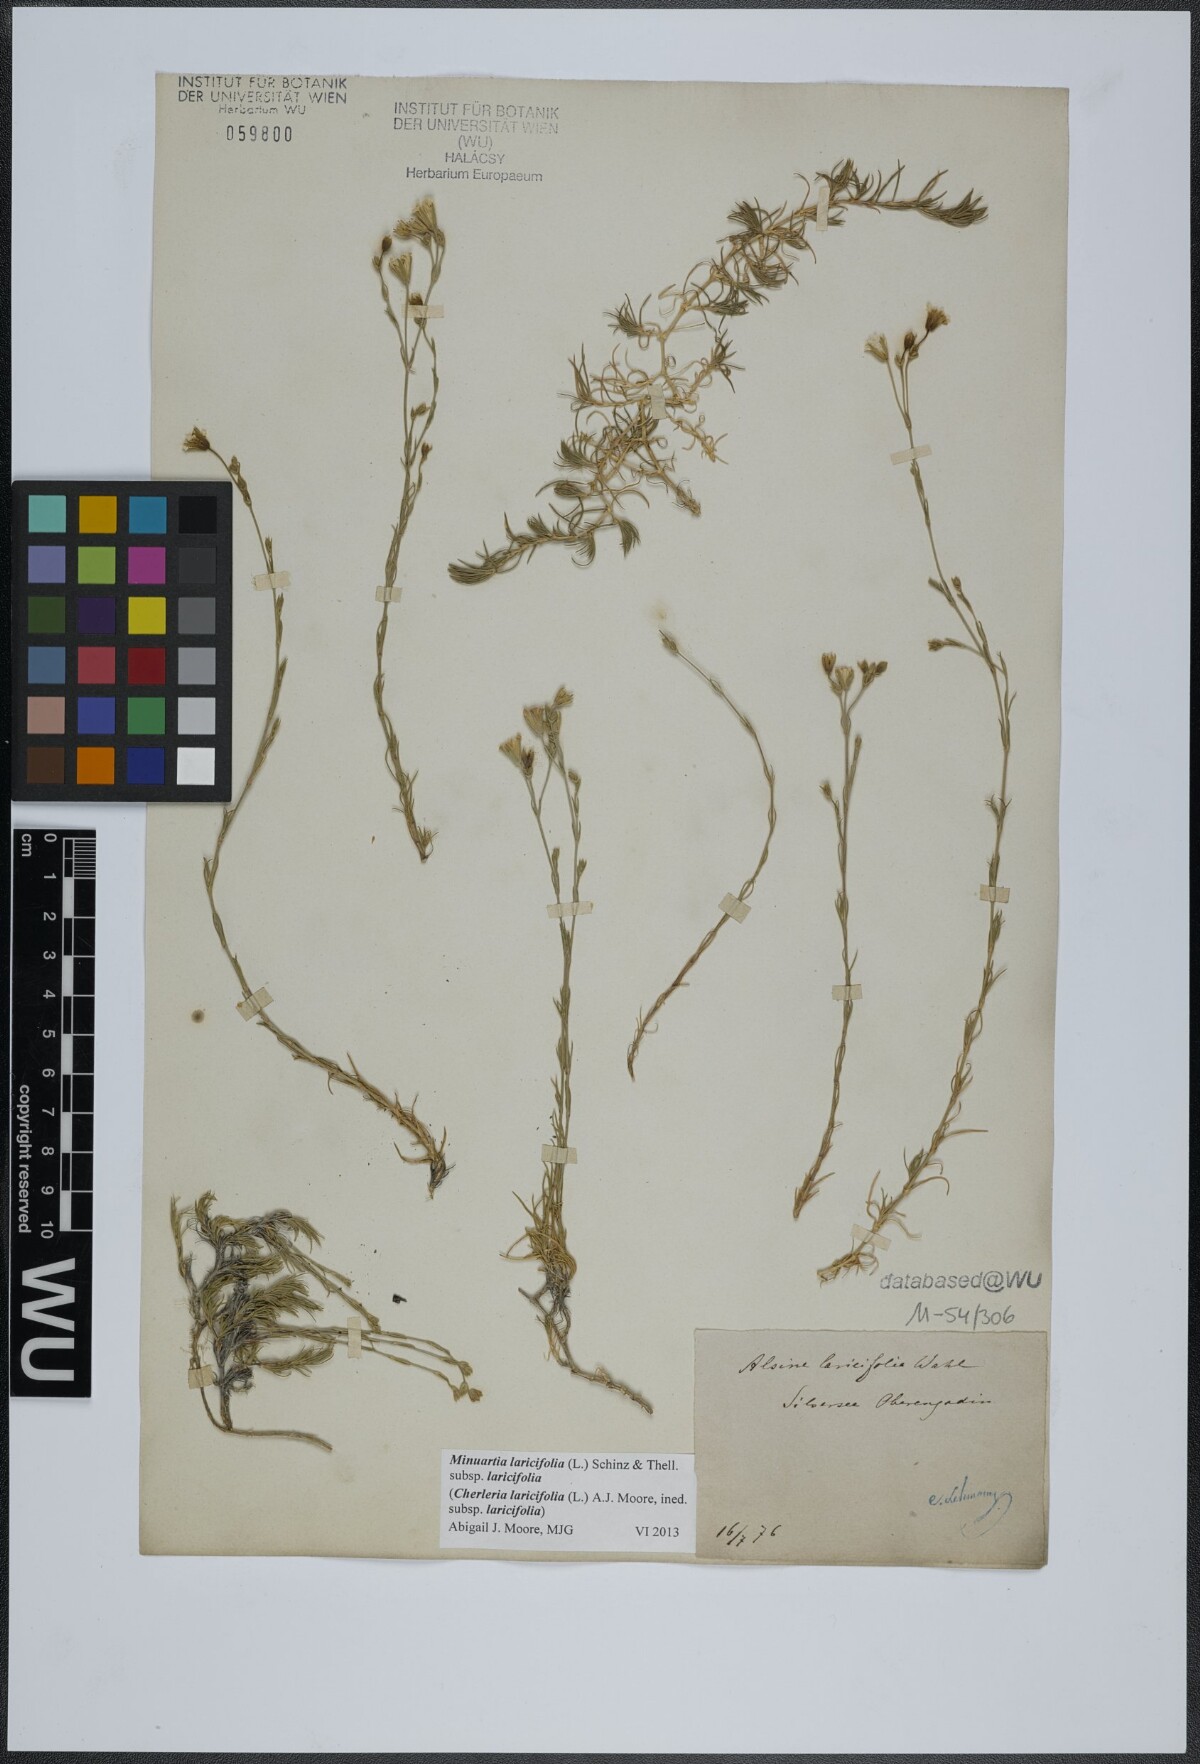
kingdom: Plantae
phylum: Tracheophyta
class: Magnoliopsida
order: Caryophyllales
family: Caryophyllaceae
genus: Cherleria
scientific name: Cherleria laricifolia
